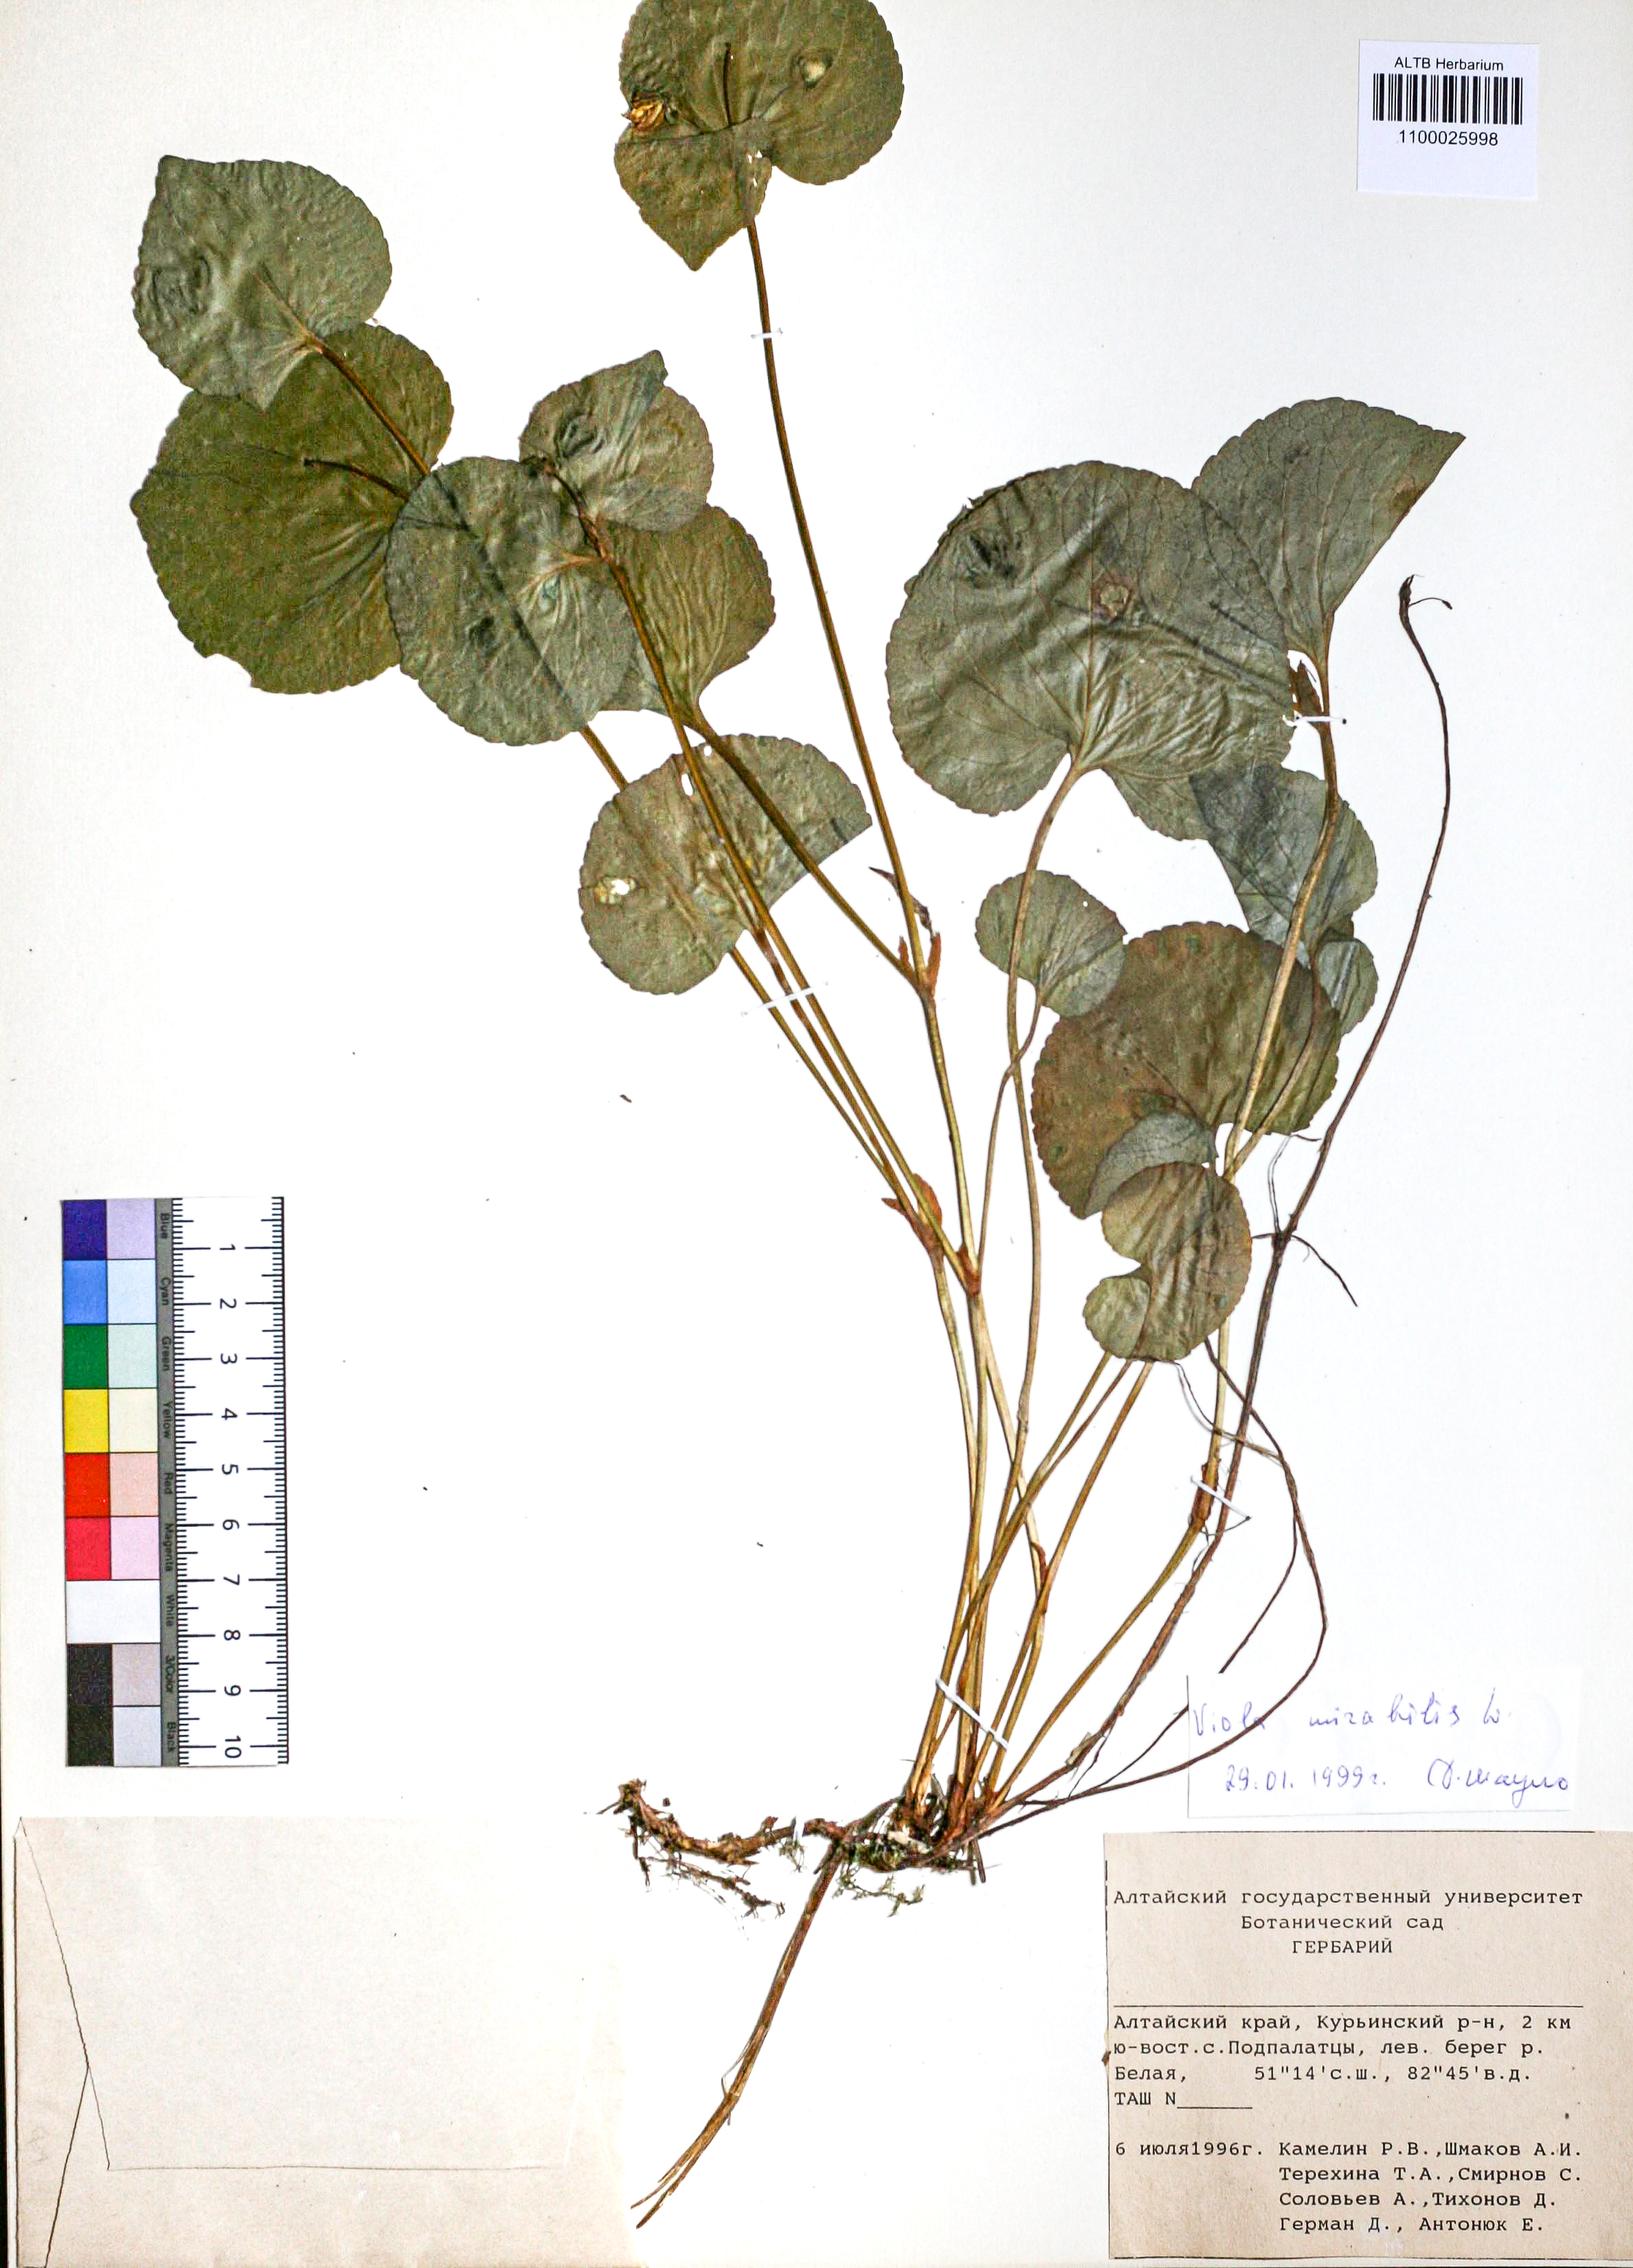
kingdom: Plantae
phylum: Tracheophyta
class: Magnoliopsida
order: Malpighiales
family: Violaceae
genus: Viola
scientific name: Viola mirabilis
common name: Wonder violet
